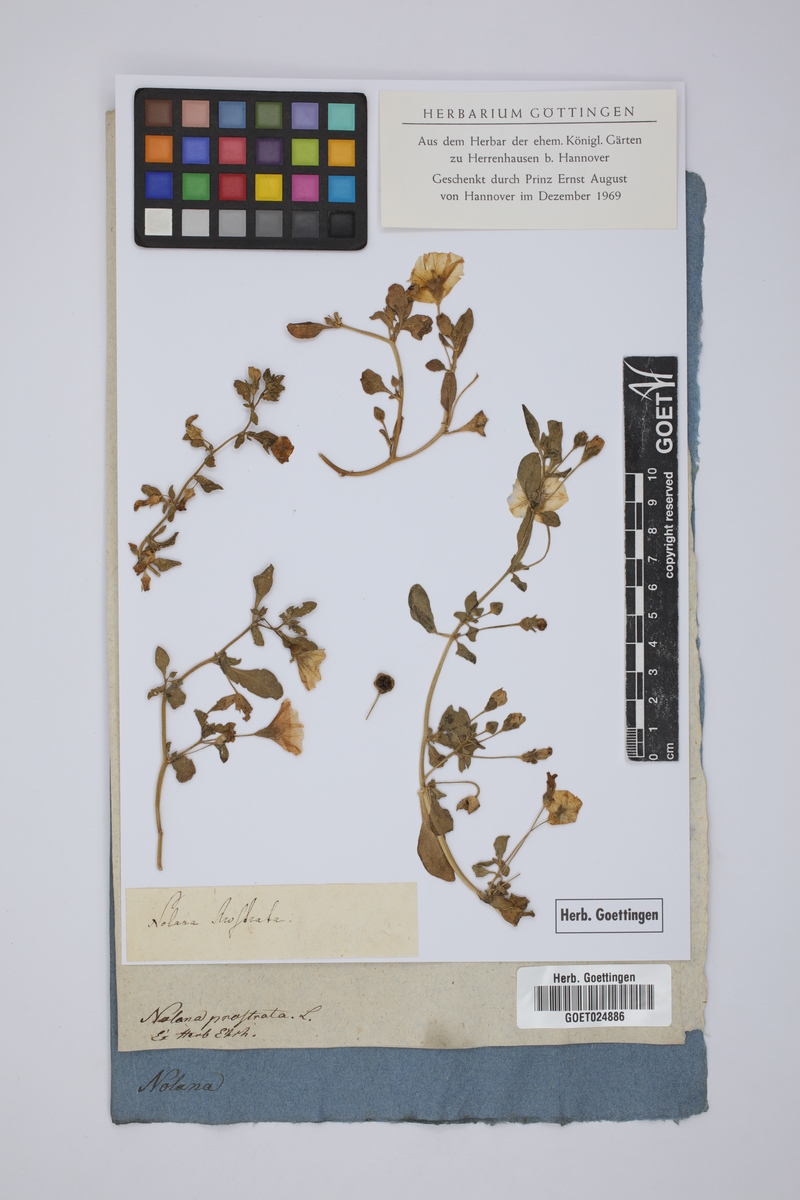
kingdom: Plantae
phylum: Tracheophyta
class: Magnoliopsida
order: Solanales
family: Solanaceae
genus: Nolana
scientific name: Nolana humifusa
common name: Trailing chilean-bellflower
